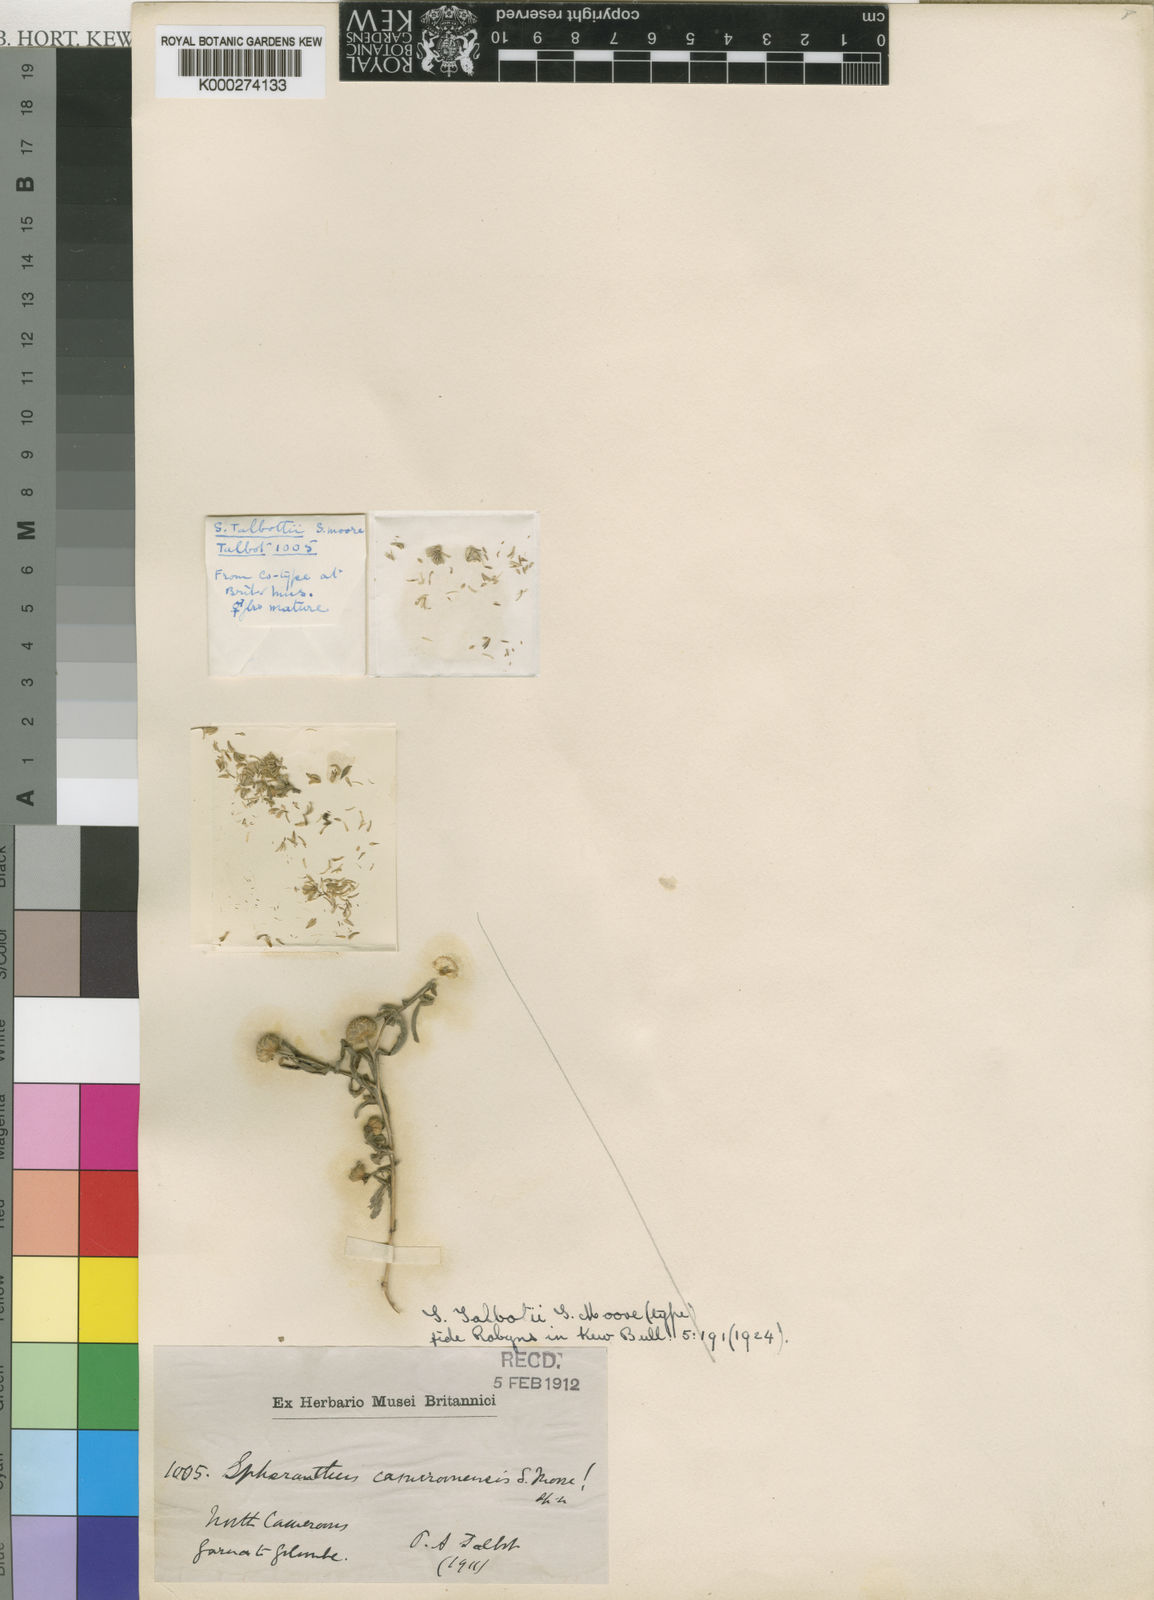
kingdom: Plantae
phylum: Tracheophyta
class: Magnoliopsida
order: Asterales
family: Asteraceae
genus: Sphaeranthus
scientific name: Sphaeranthus talbotii
